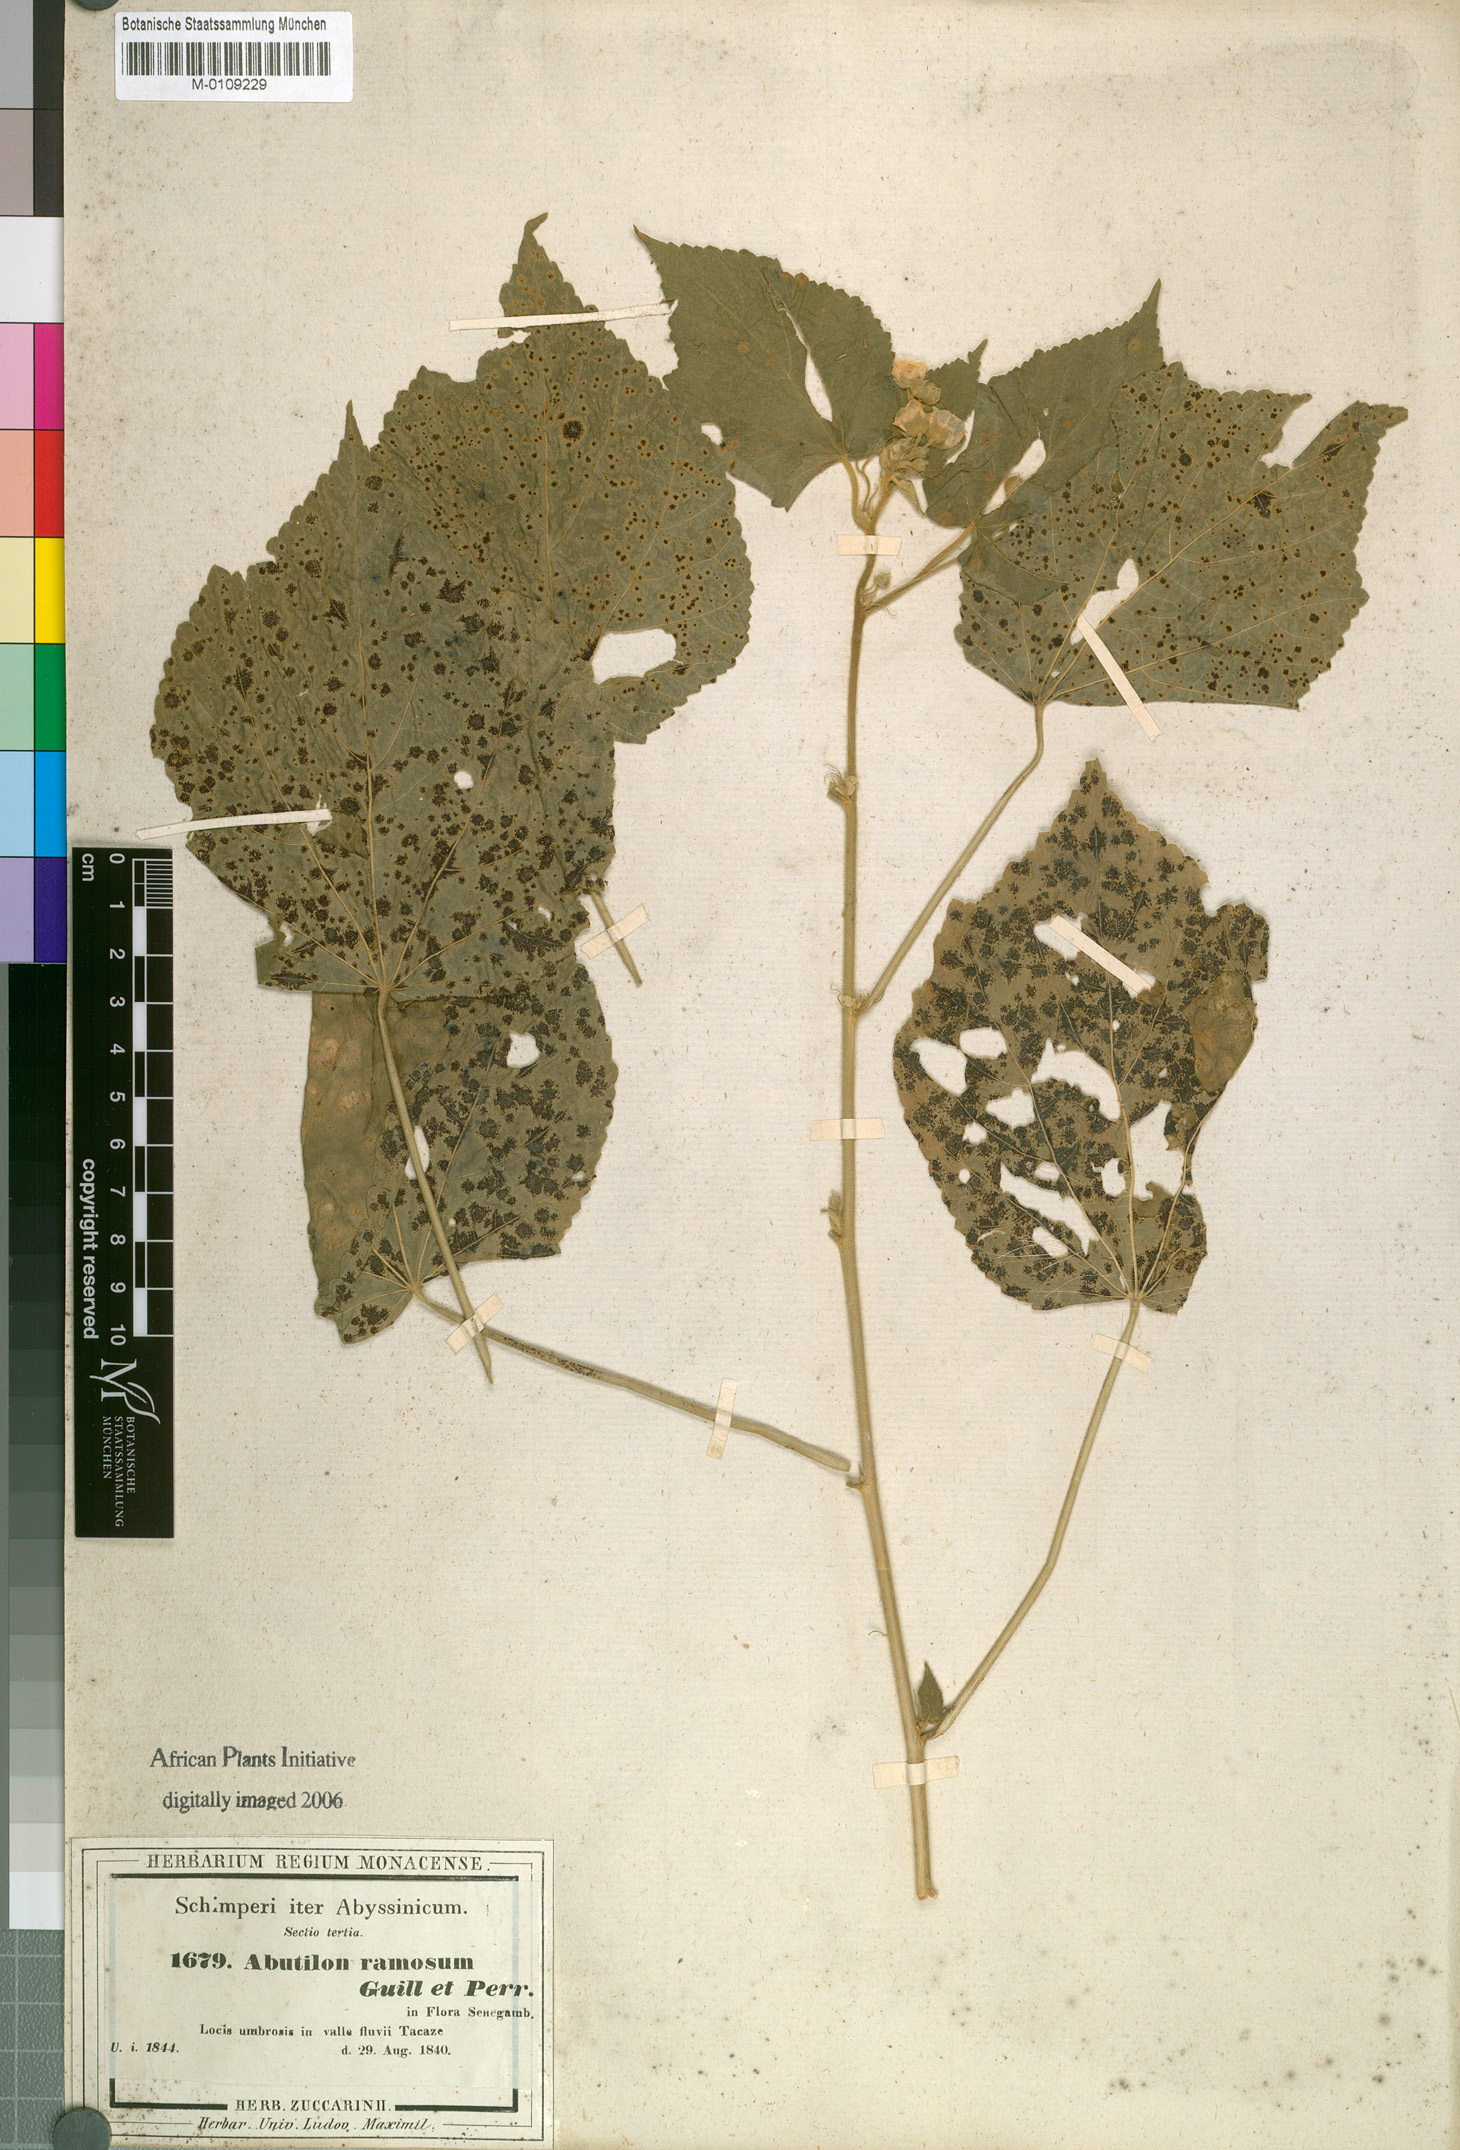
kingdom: Plantae
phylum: Tracheophyta
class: Magnoliopsida
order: Malvales
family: Malvaceae
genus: Abutilon
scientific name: Abutilon ramosum
